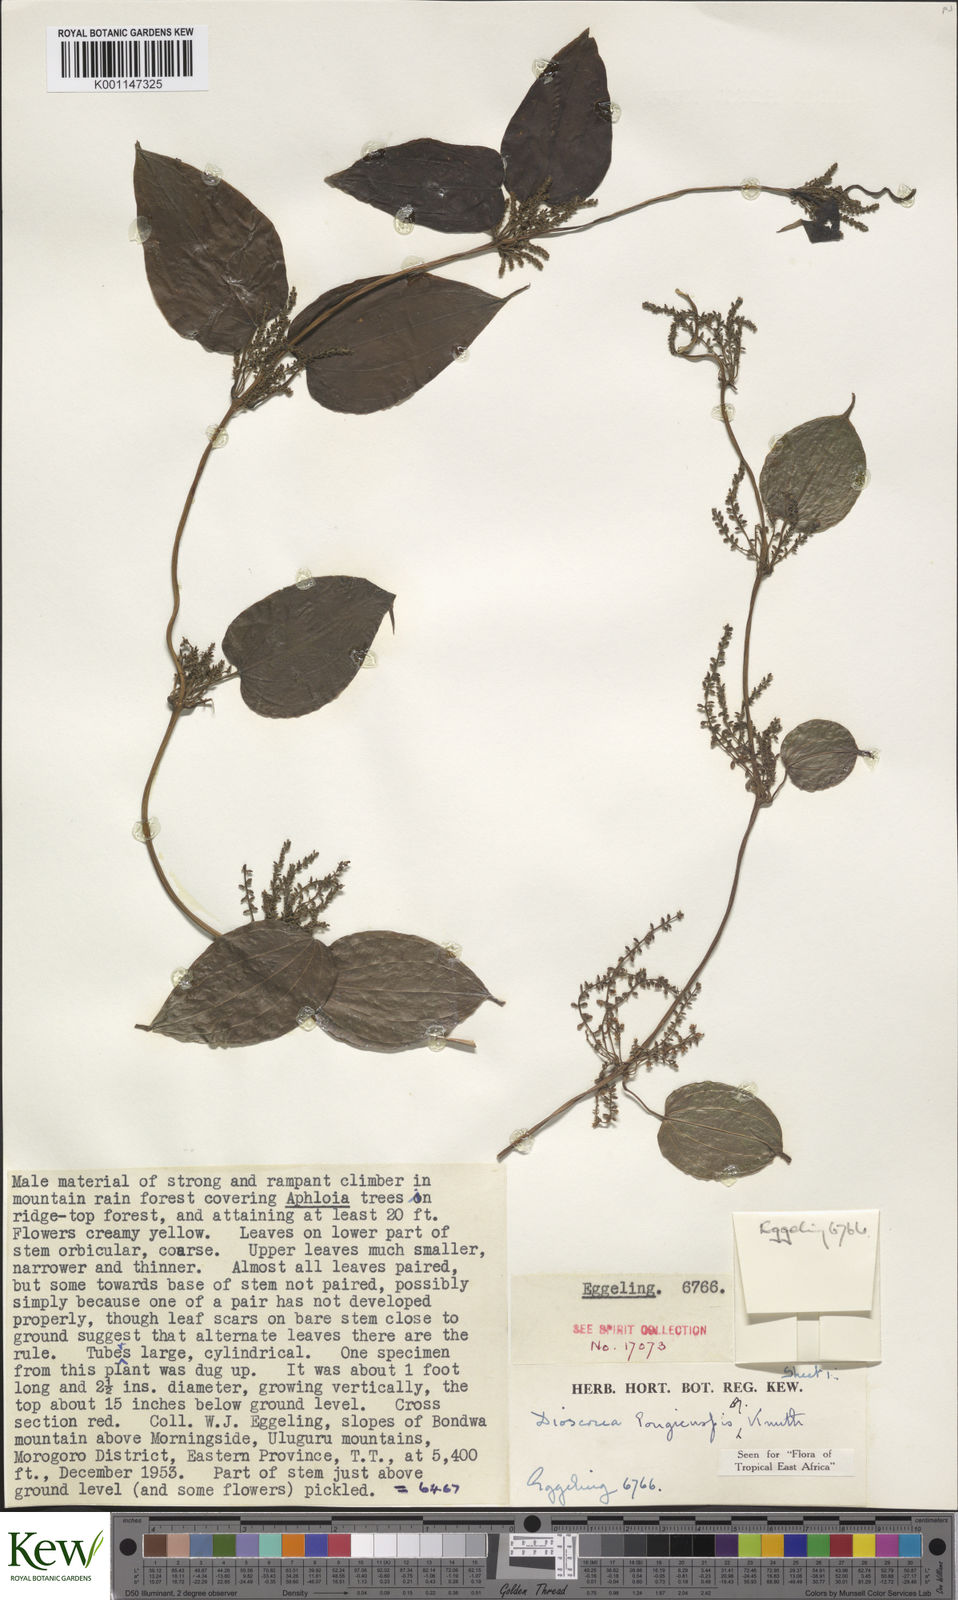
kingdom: Plantae
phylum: Tracheophyta
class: Liliopsida
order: Dioscoreales
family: Dioscoreaceae
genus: Dioscorea
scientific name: Dioscorea longicuspis
